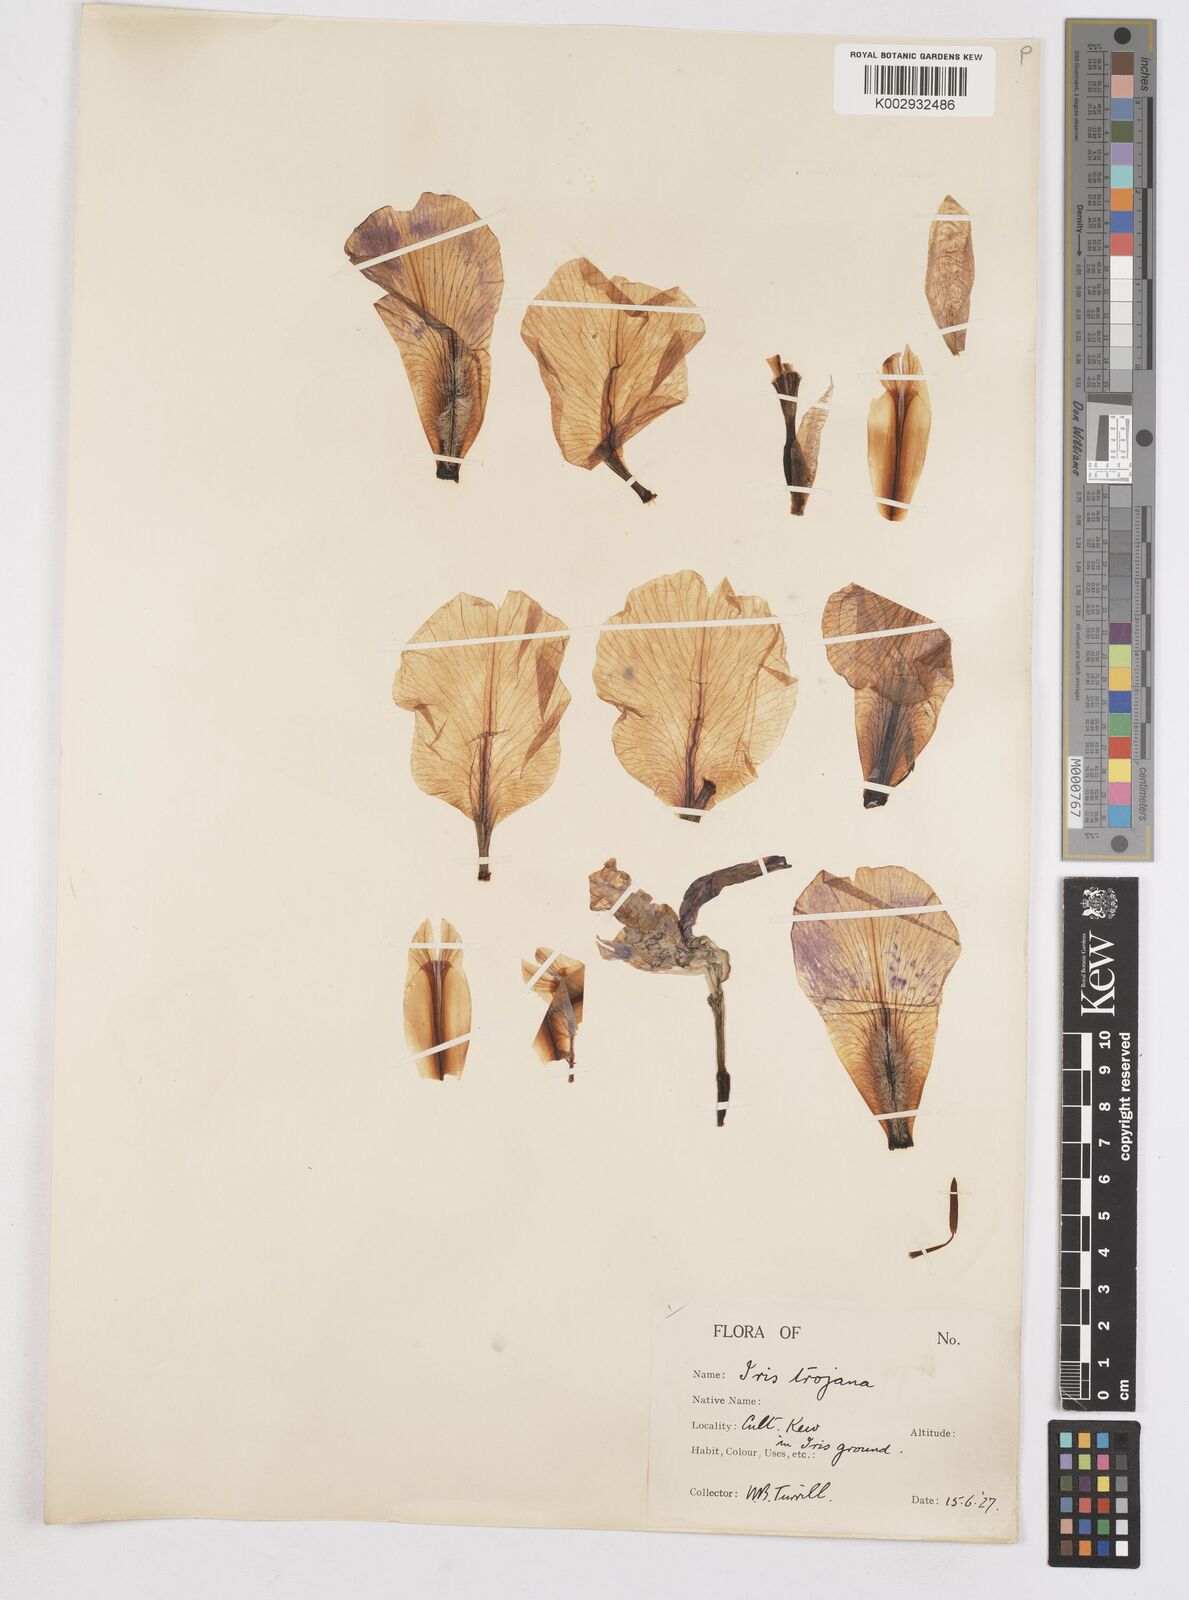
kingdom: Plantae
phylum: Tracheophyta
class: Liliopsida
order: Asparagales
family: Iridaceae
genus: Iris
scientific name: Iris
